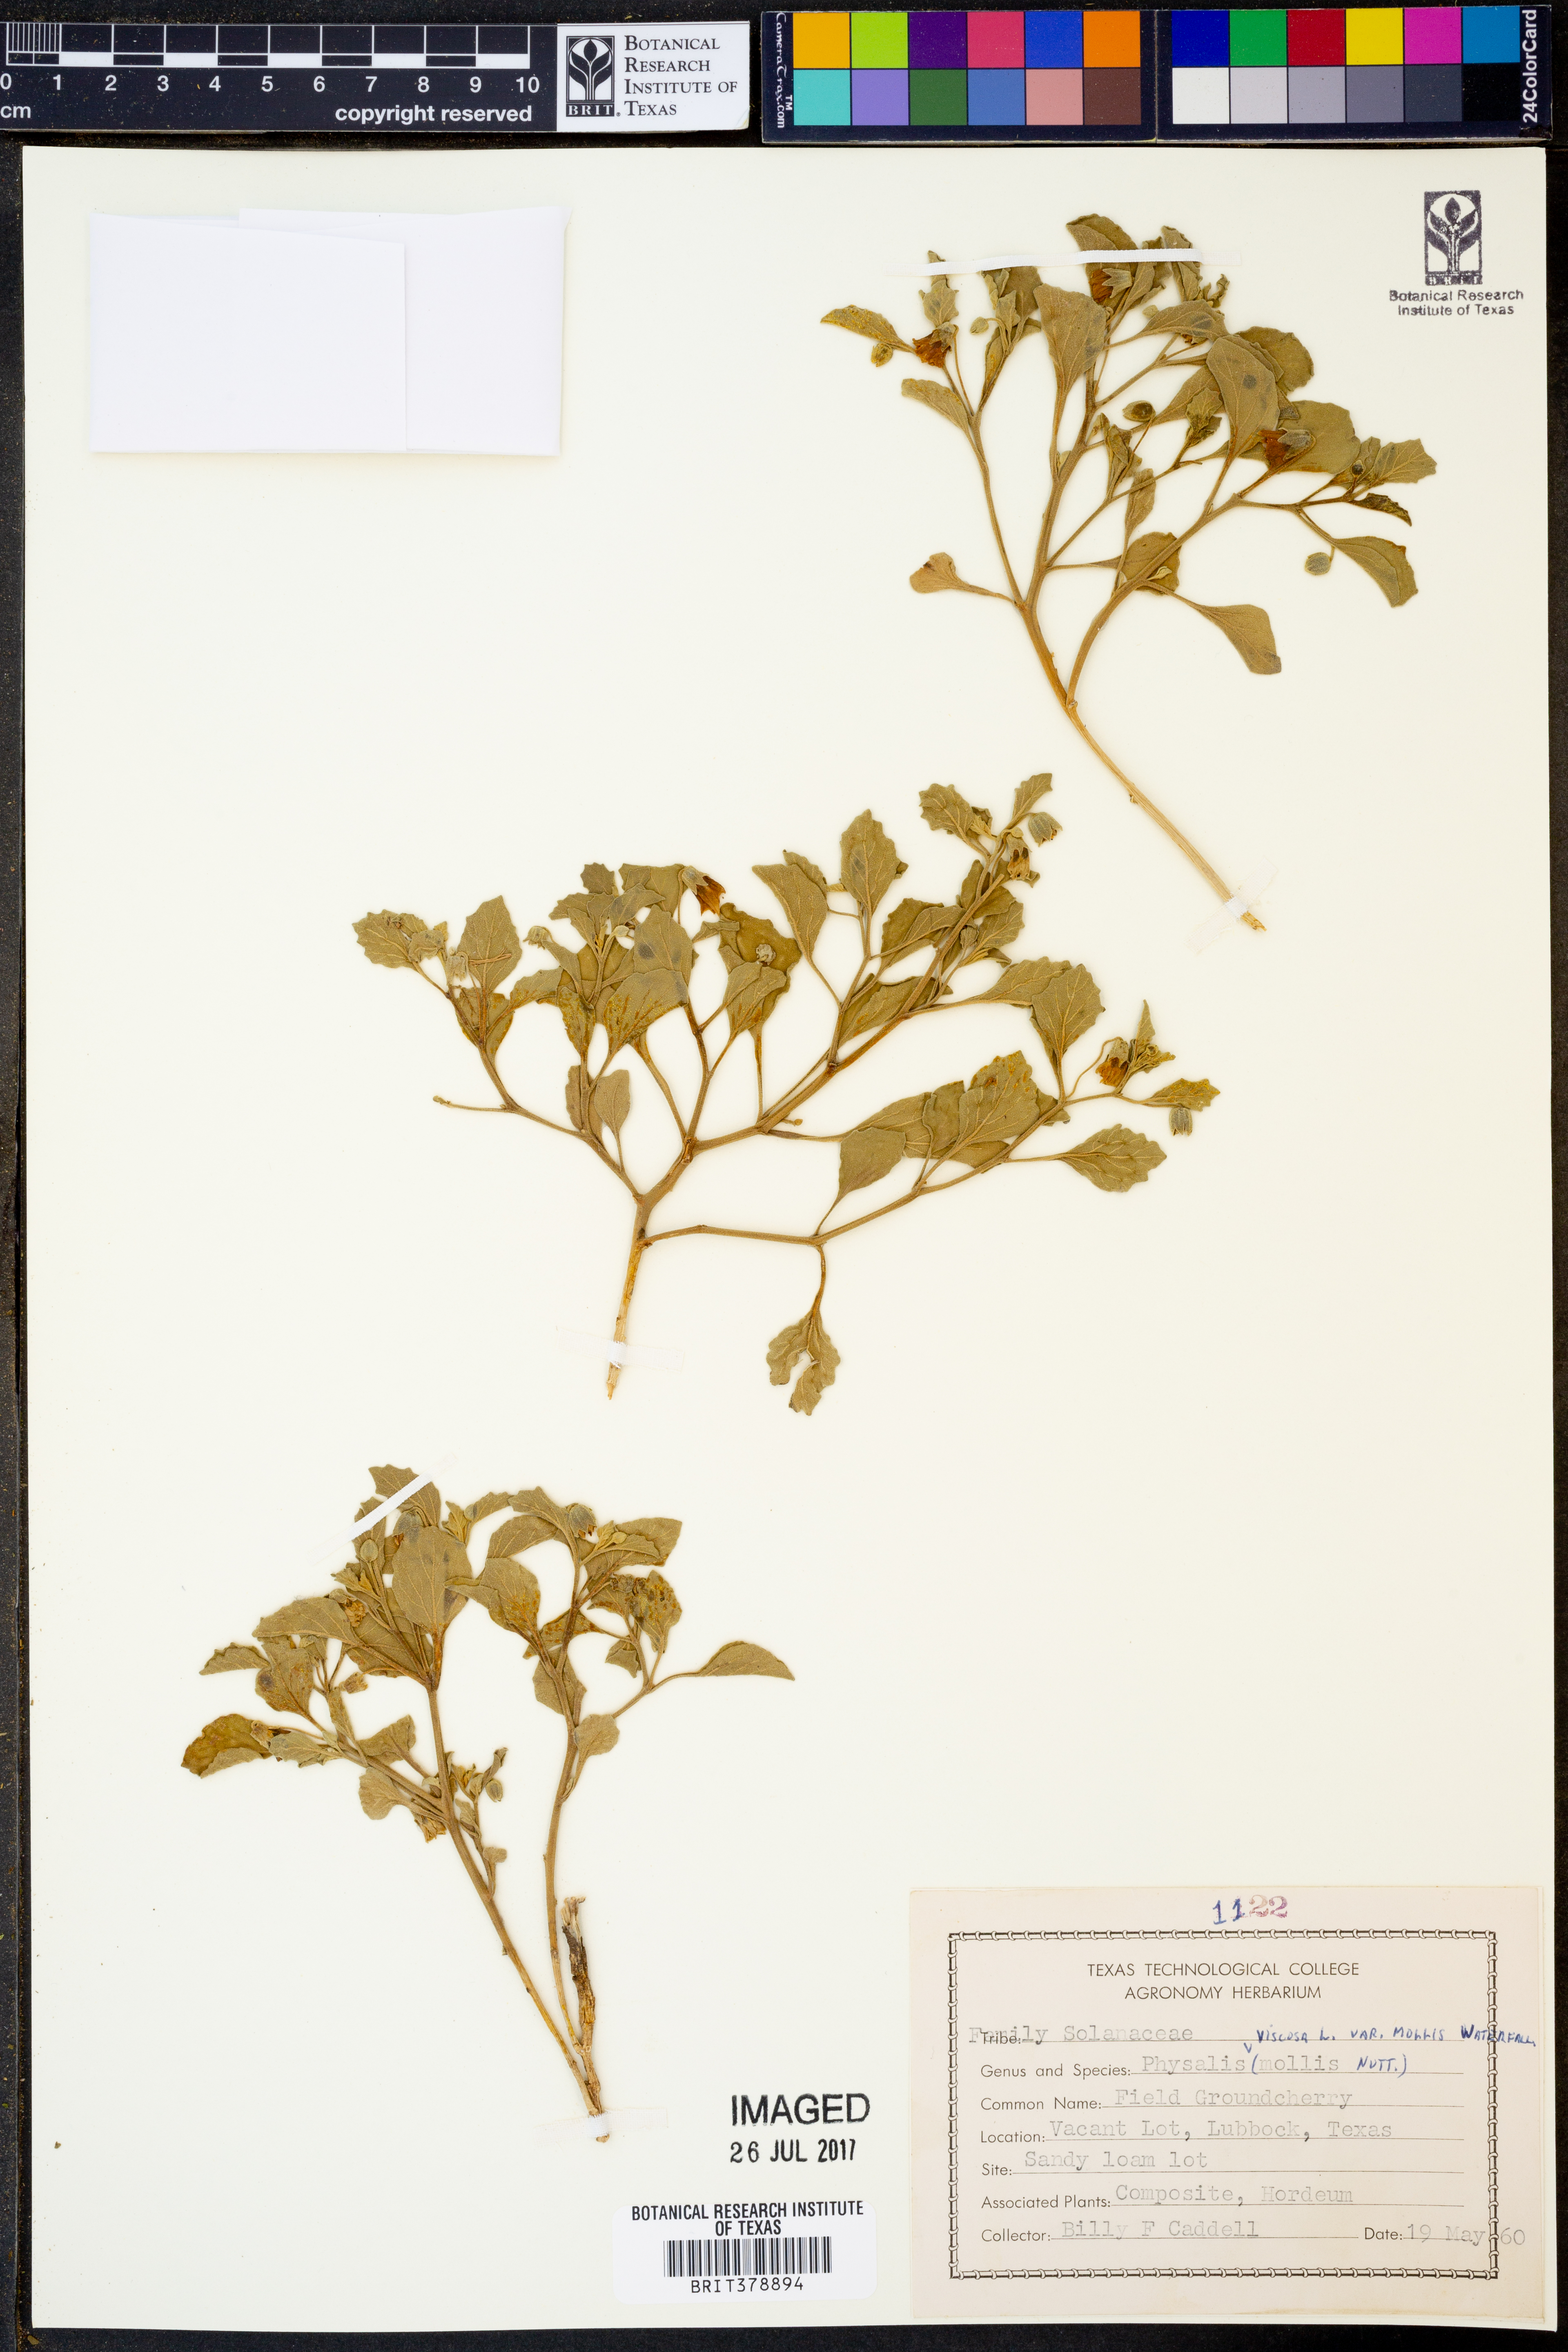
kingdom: Plantae
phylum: Tracheophyta
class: Magnoliopsida
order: Solanales
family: Solanaceae
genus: Physalis
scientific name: Physalis mollis
